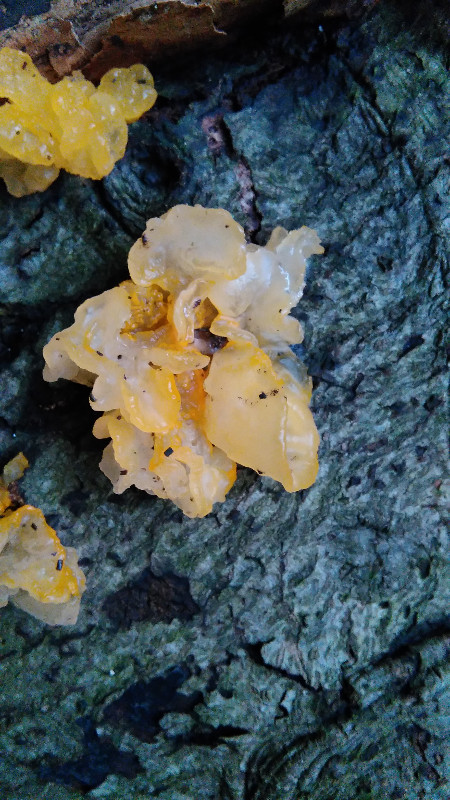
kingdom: Fungi
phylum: Basidiomycota
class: Tremellomycetes
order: Tremellales
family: Tremellaceae
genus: Tremella
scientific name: Tremella mesenterica
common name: gul bævresvamp
